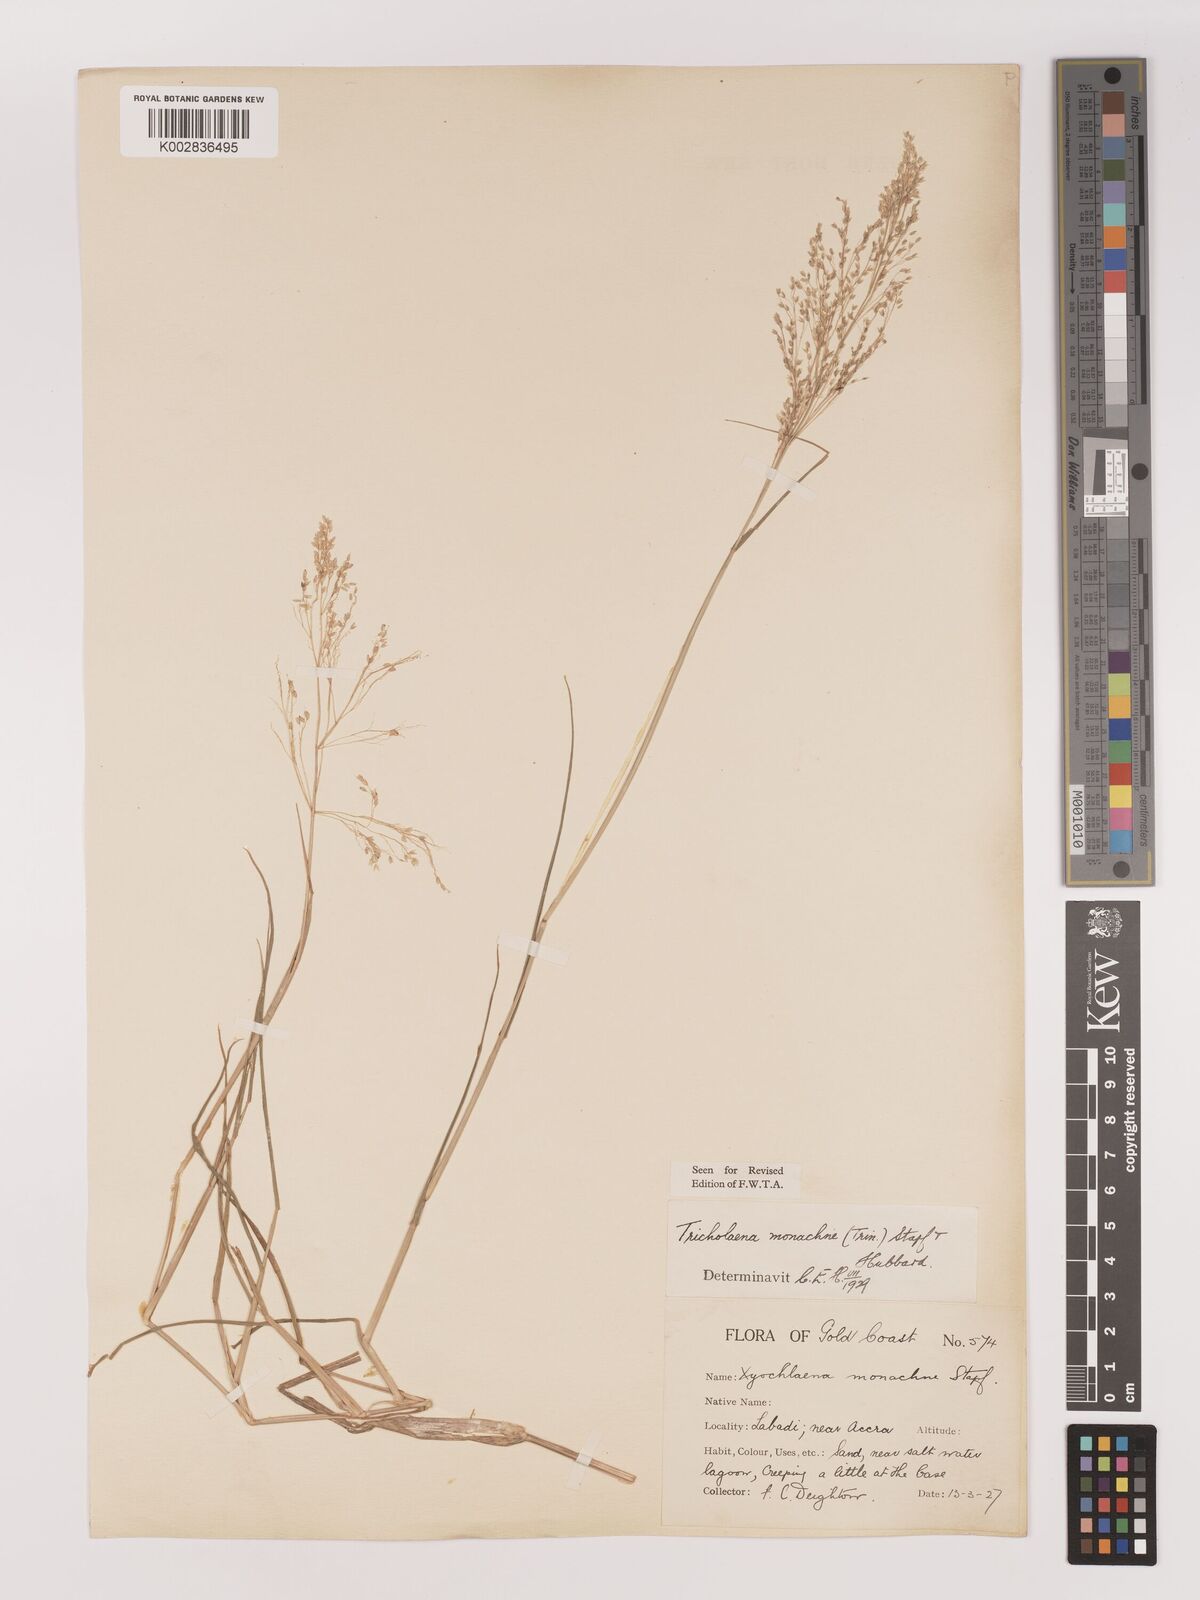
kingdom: Plantae
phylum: Tracheophyta
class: Liliopsida
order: Poales
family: Poaceae
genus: Tricholaena
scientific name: Tricholaena monachne
